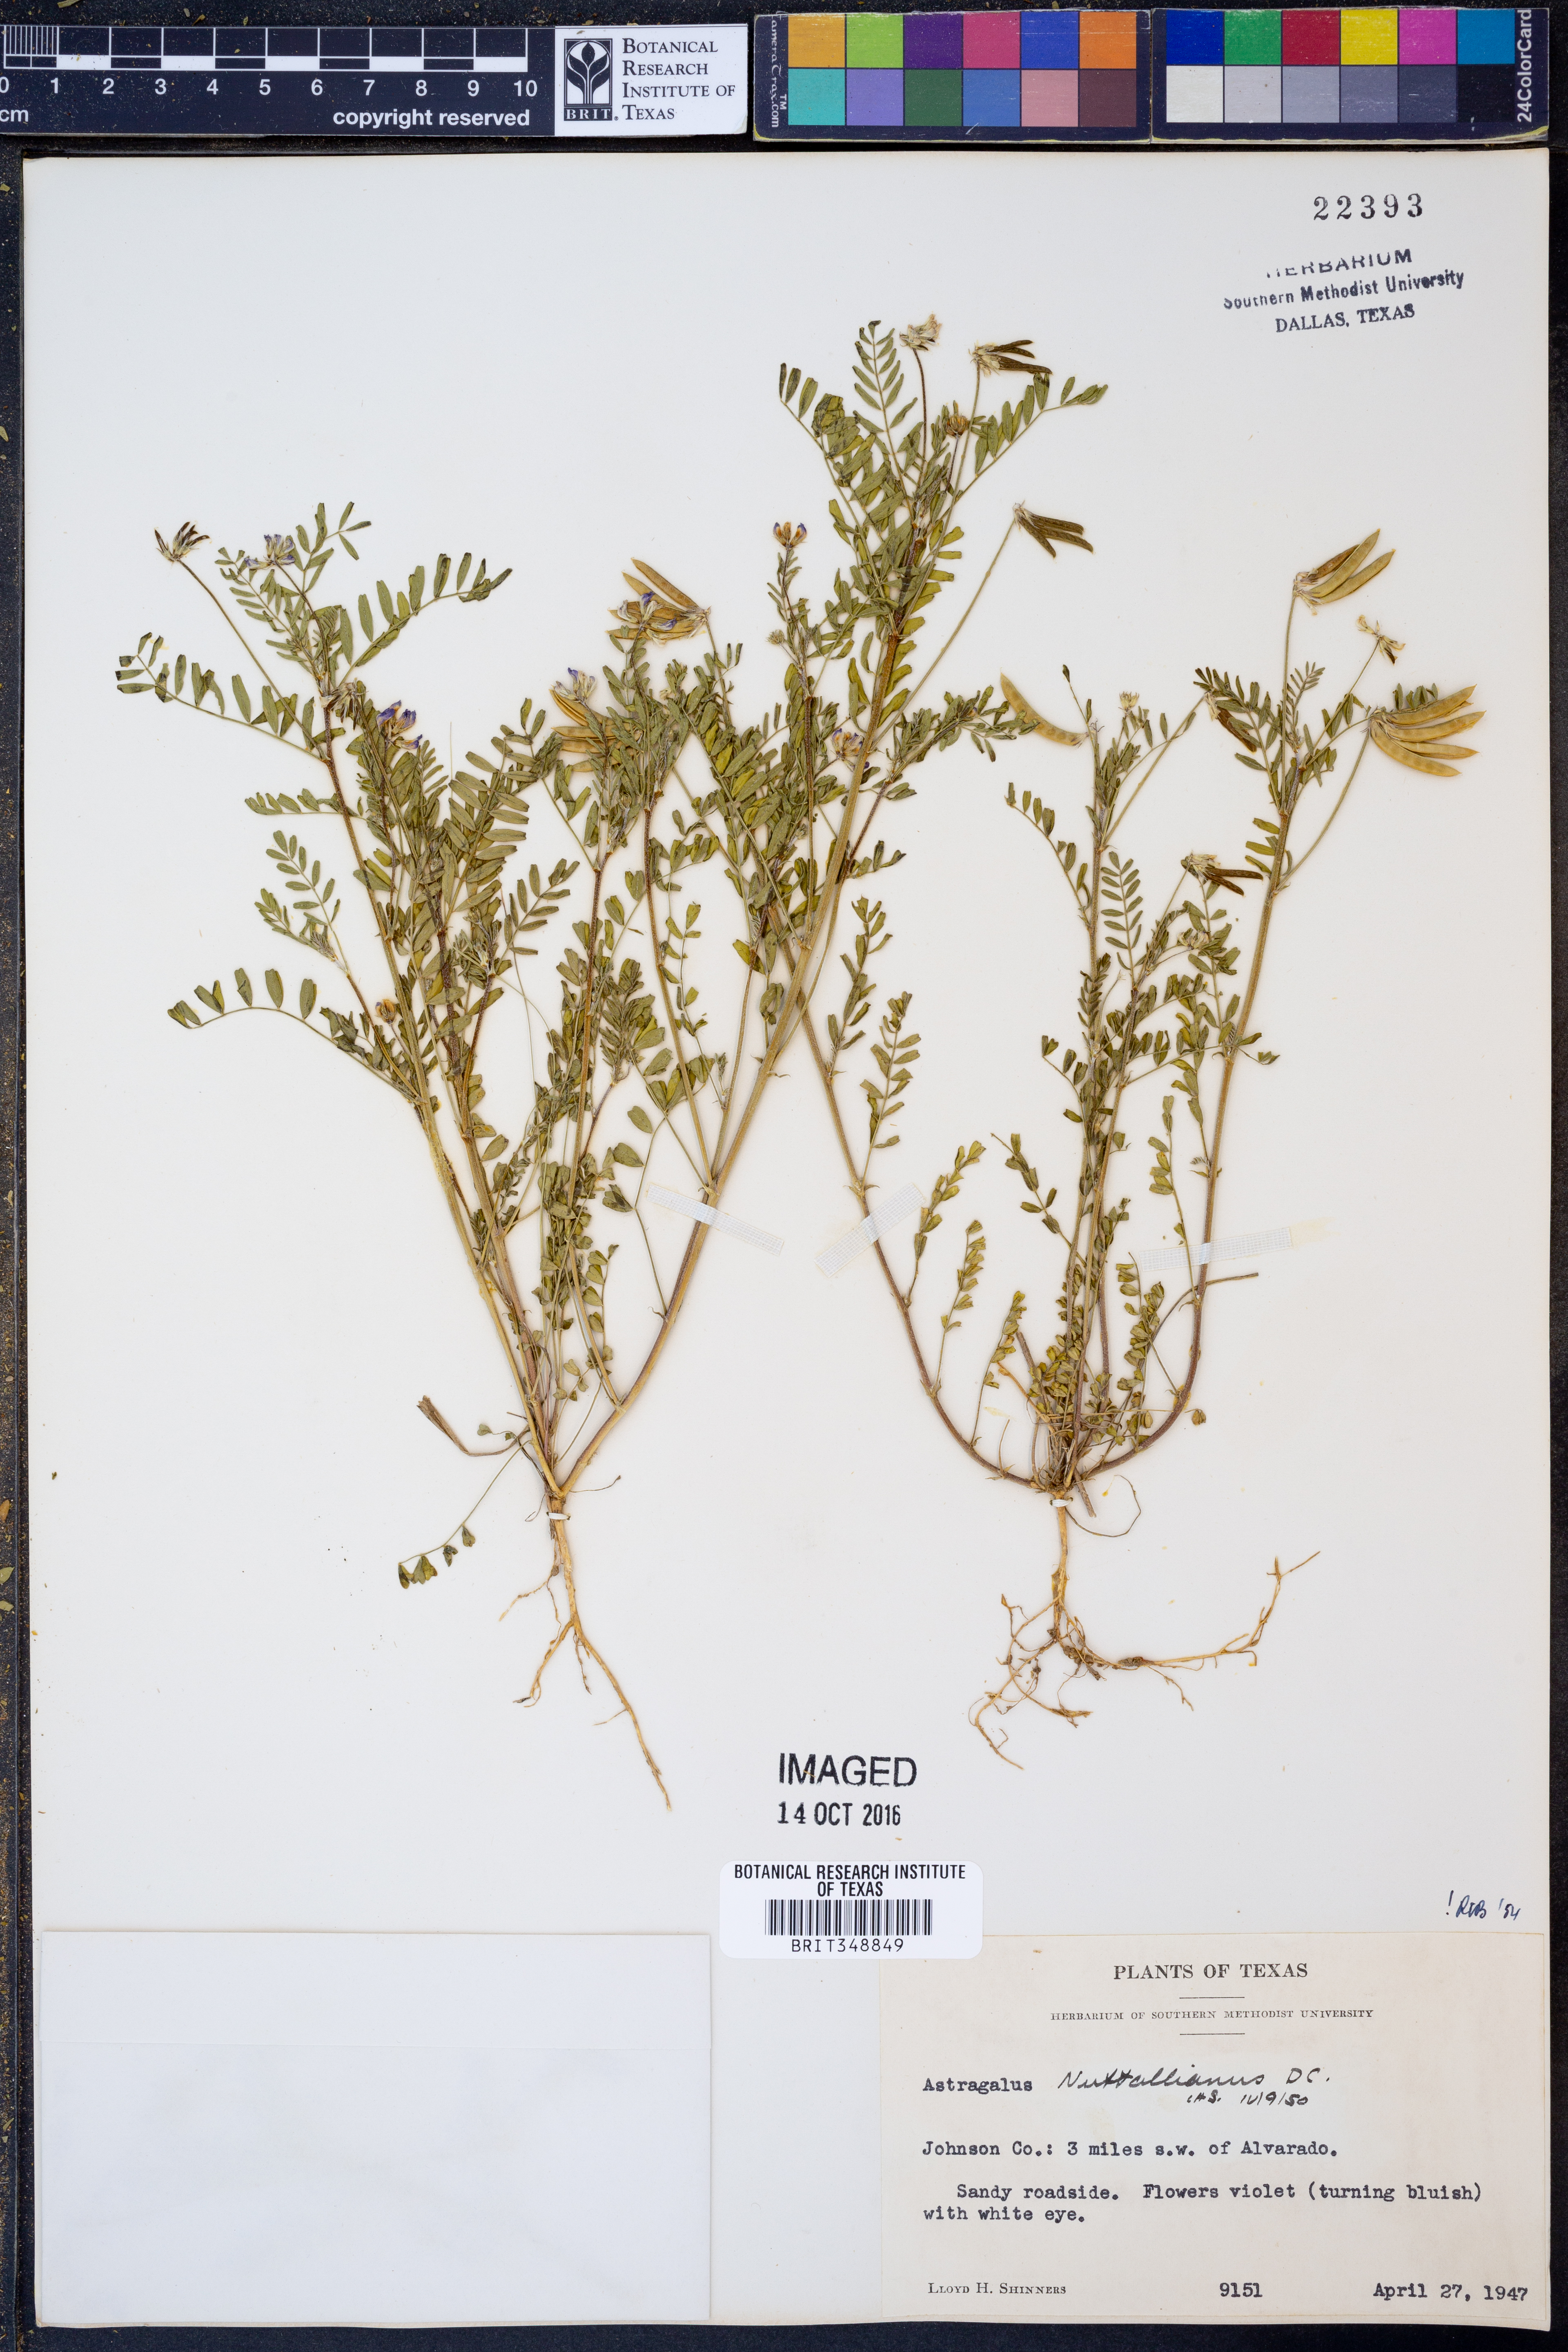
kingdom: Plantae
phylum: Tracheophyta
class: Magnoliopsida
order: Fabales
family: Fabaceae
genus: Astragalus
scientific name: Astragalus nuttallianus
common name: Smallflowered milkvetch
